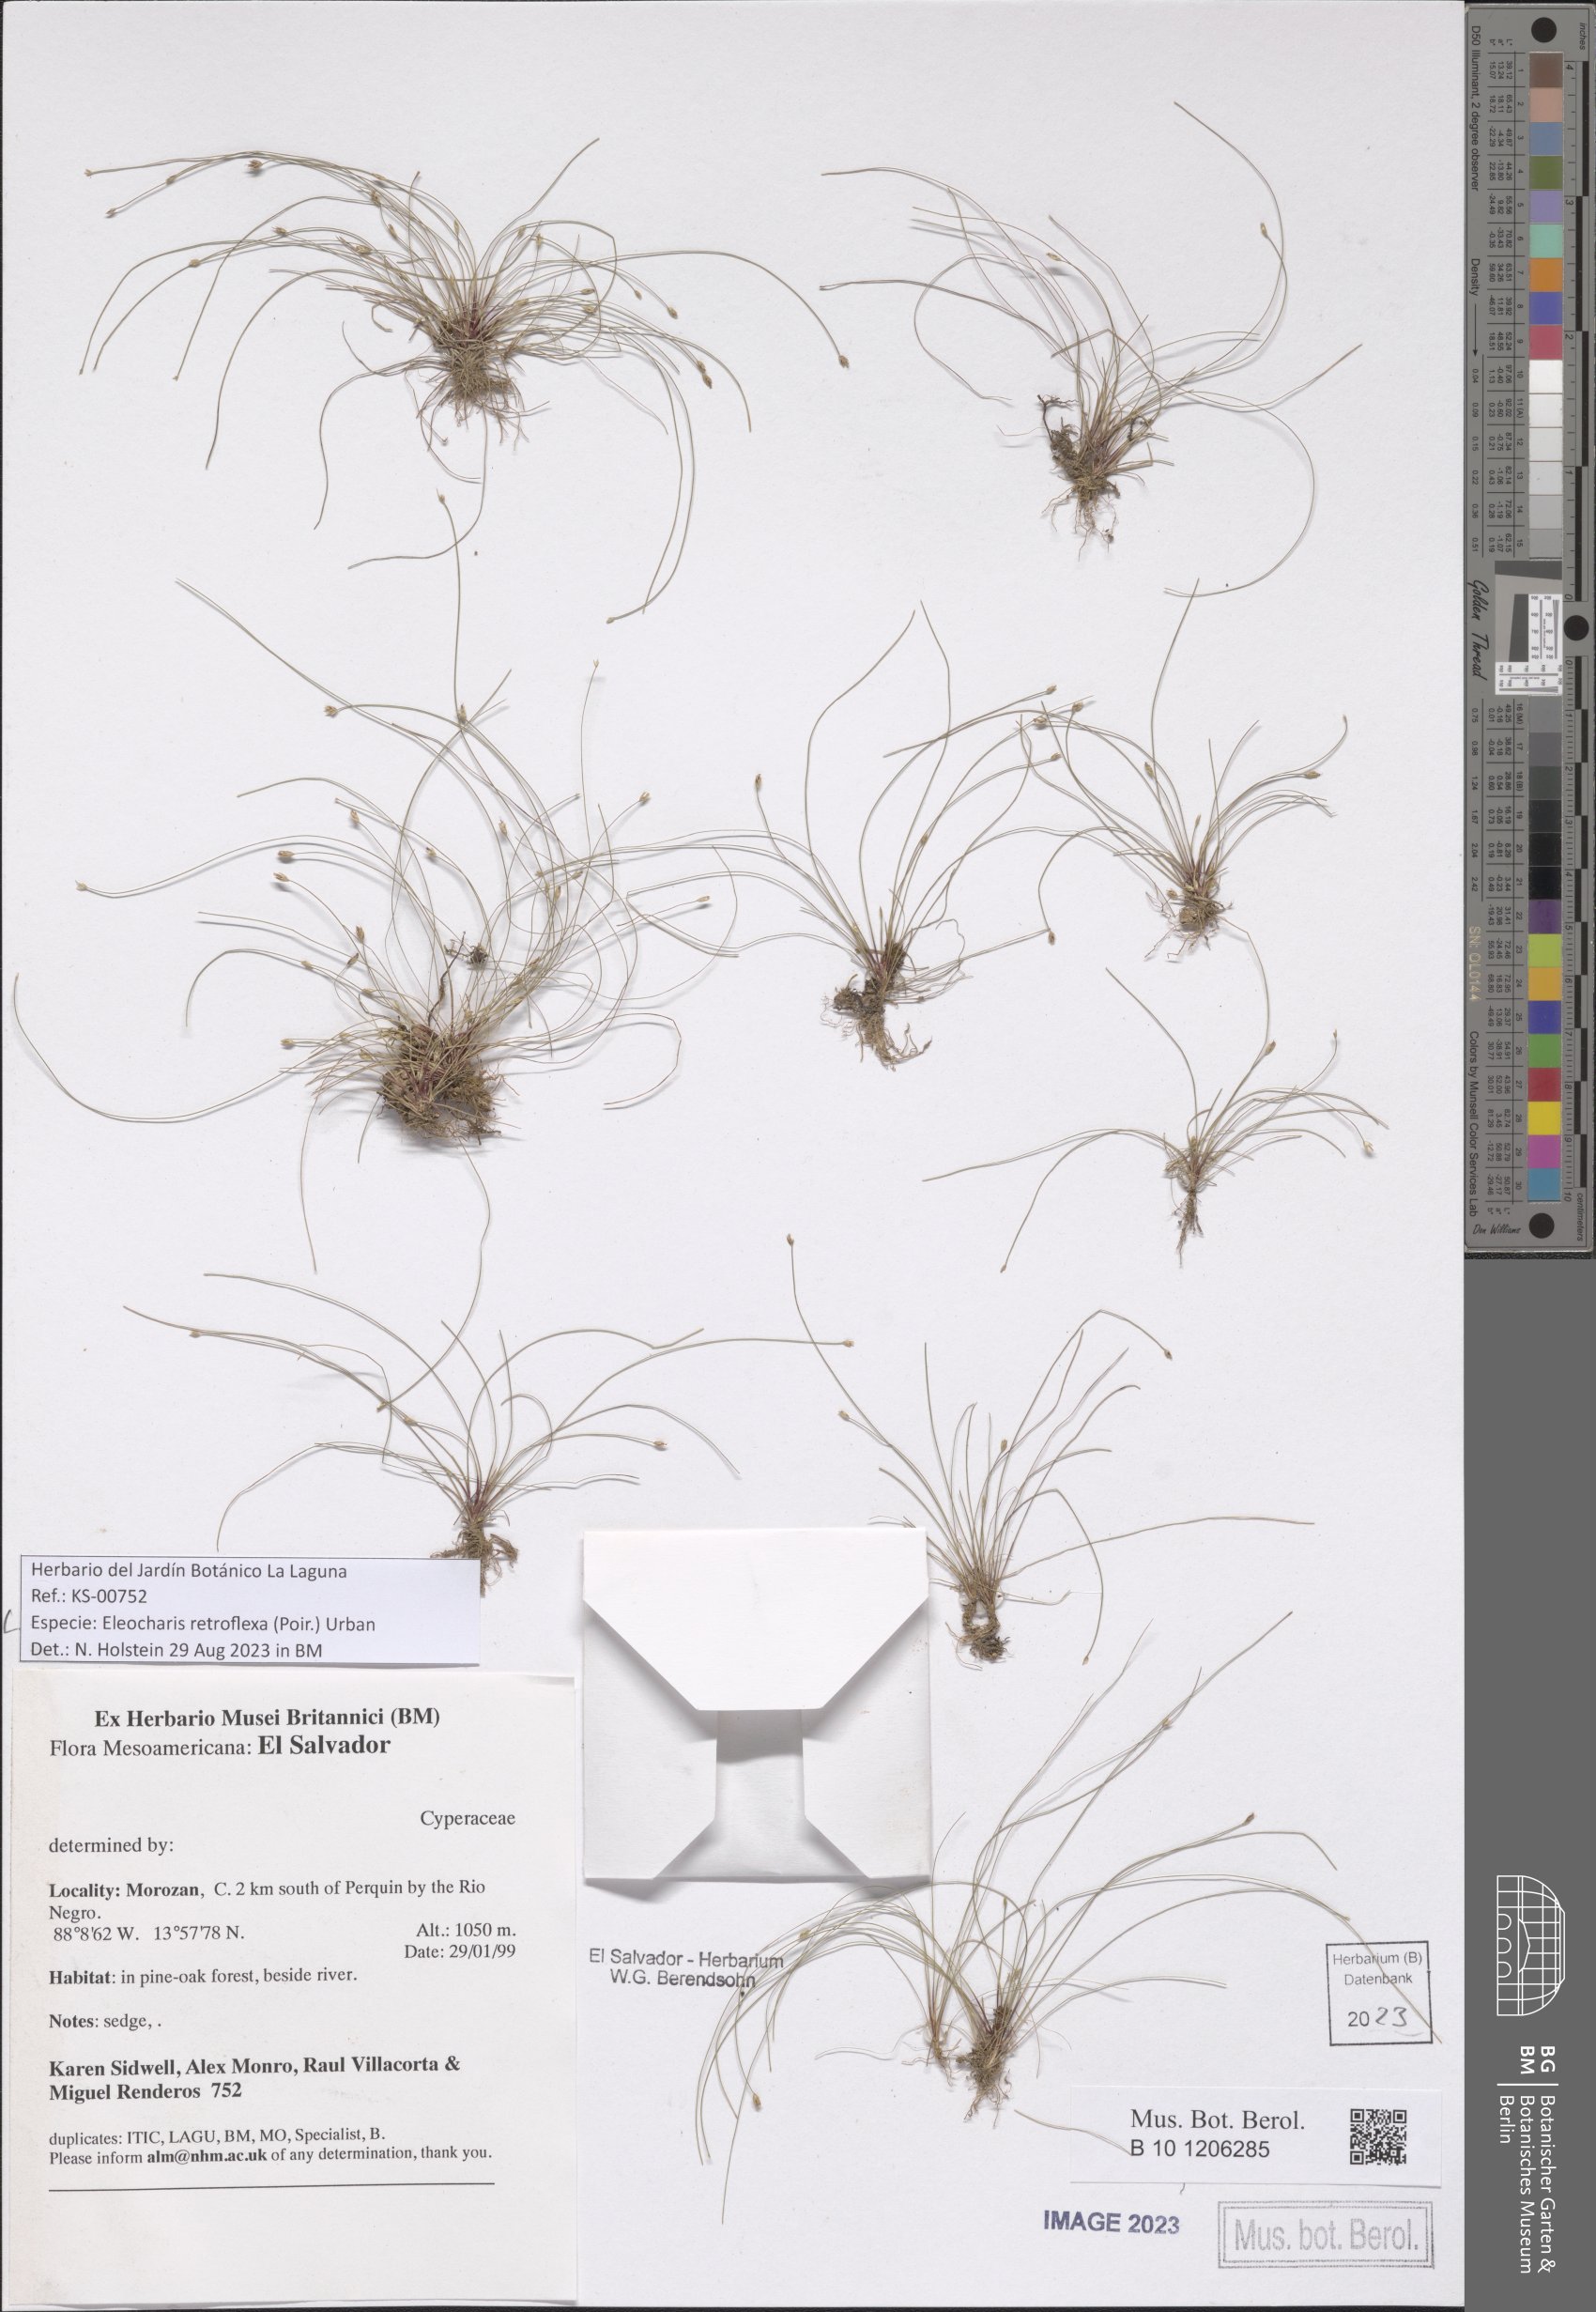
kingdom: Plantae
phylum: Tracheophyta
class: Liliopsida
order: Poales
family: Cyperaceae
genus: Eleocharis
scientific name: Eleocharis retroflexa
